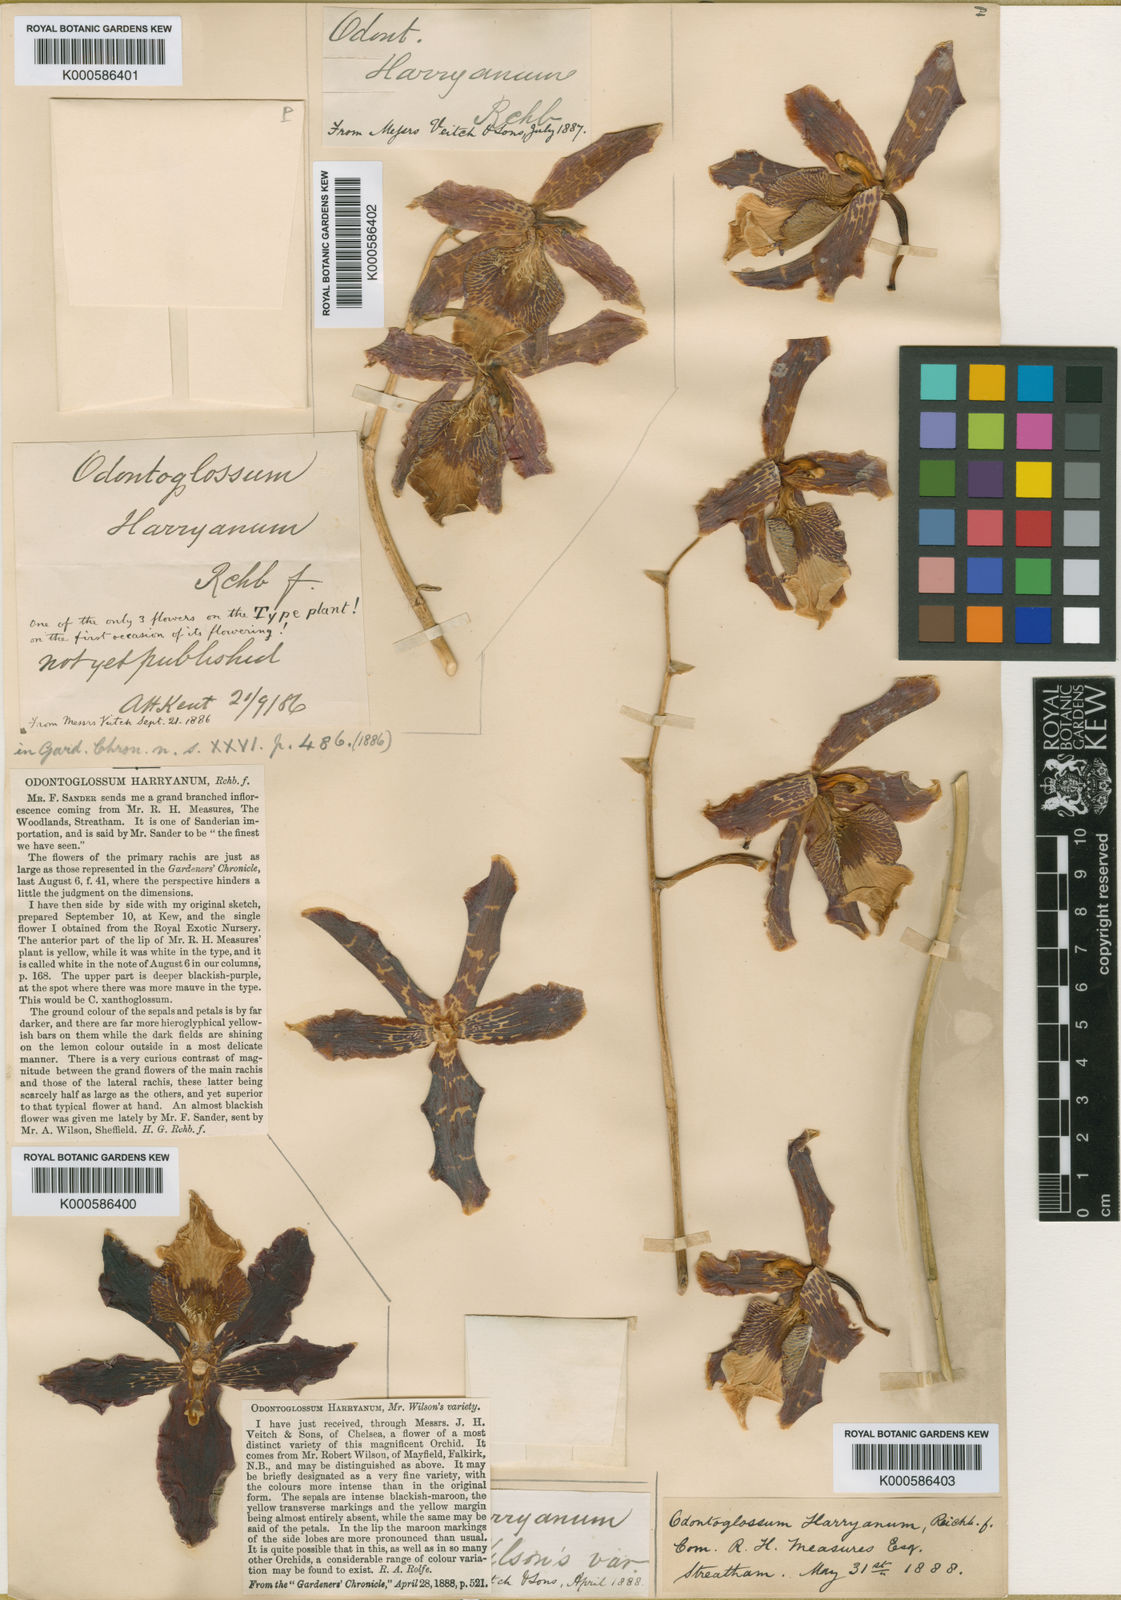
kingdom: Plantae
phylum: Tracheophyta
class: Liliopsida
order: Asparagales
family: Orchidaceae
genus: Oncidium
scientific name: Oncidium harryanum
